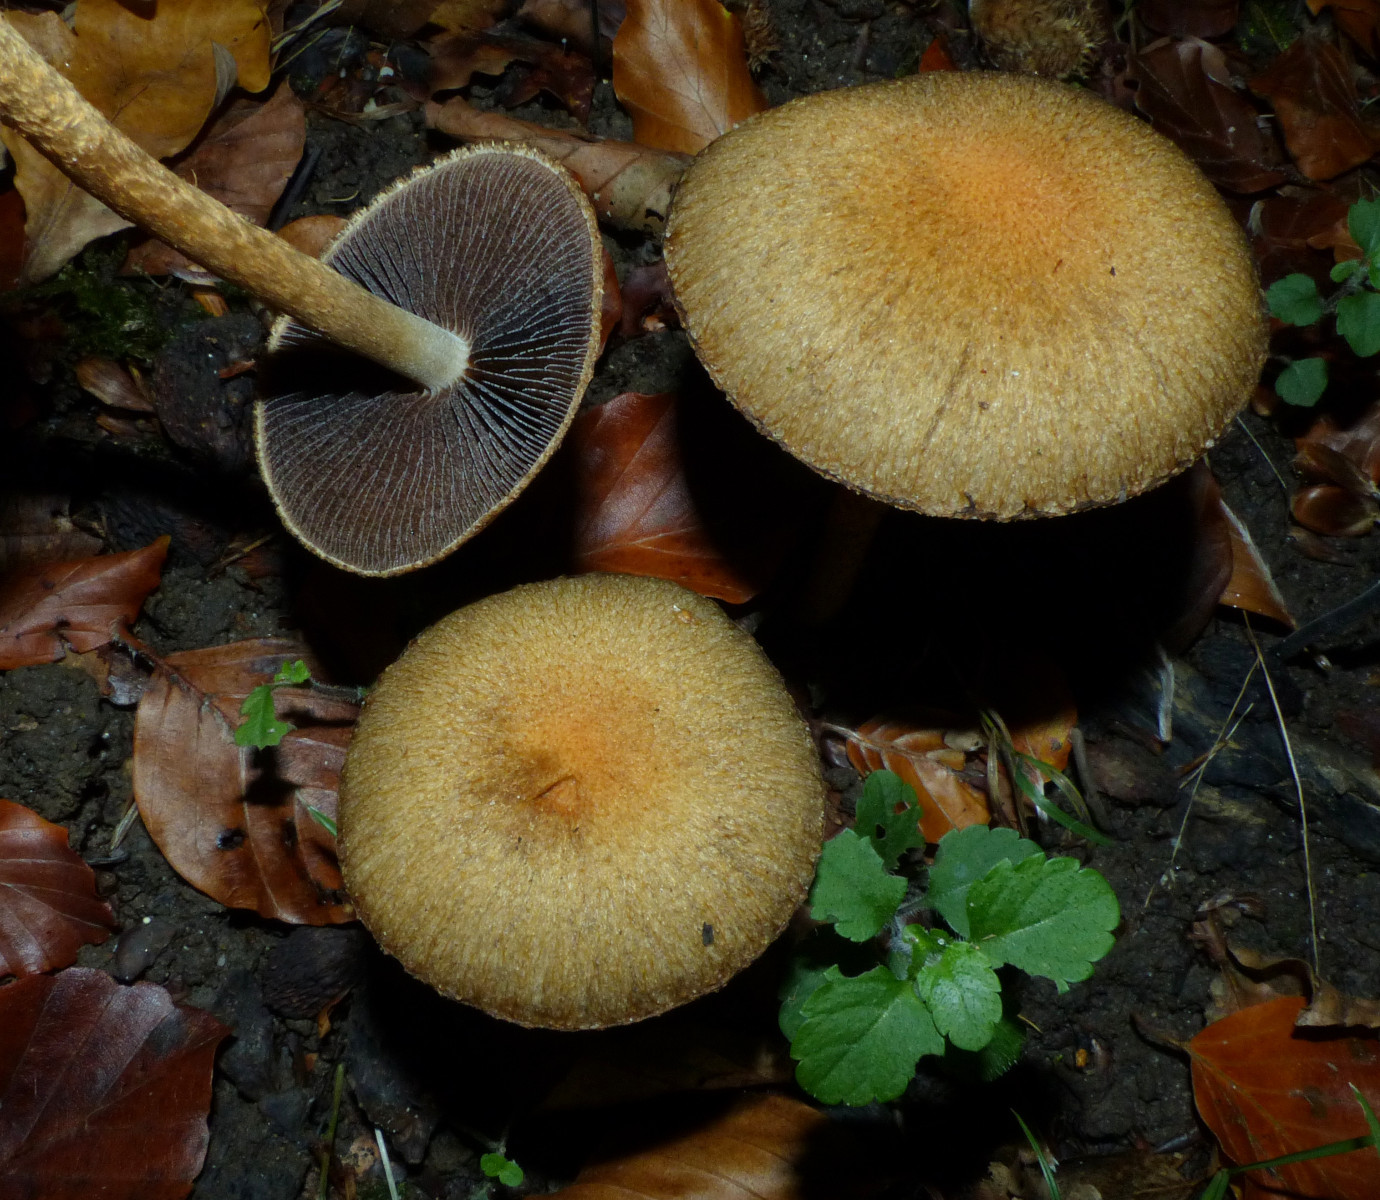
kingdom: Fungi
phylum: Basidiomycota
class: Agaricomycetes
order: Agaricales
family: Psathyrellaceae
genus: Lacrymaria
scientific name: Lacrymaria lacrymabunda
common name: grædende mørkhat
